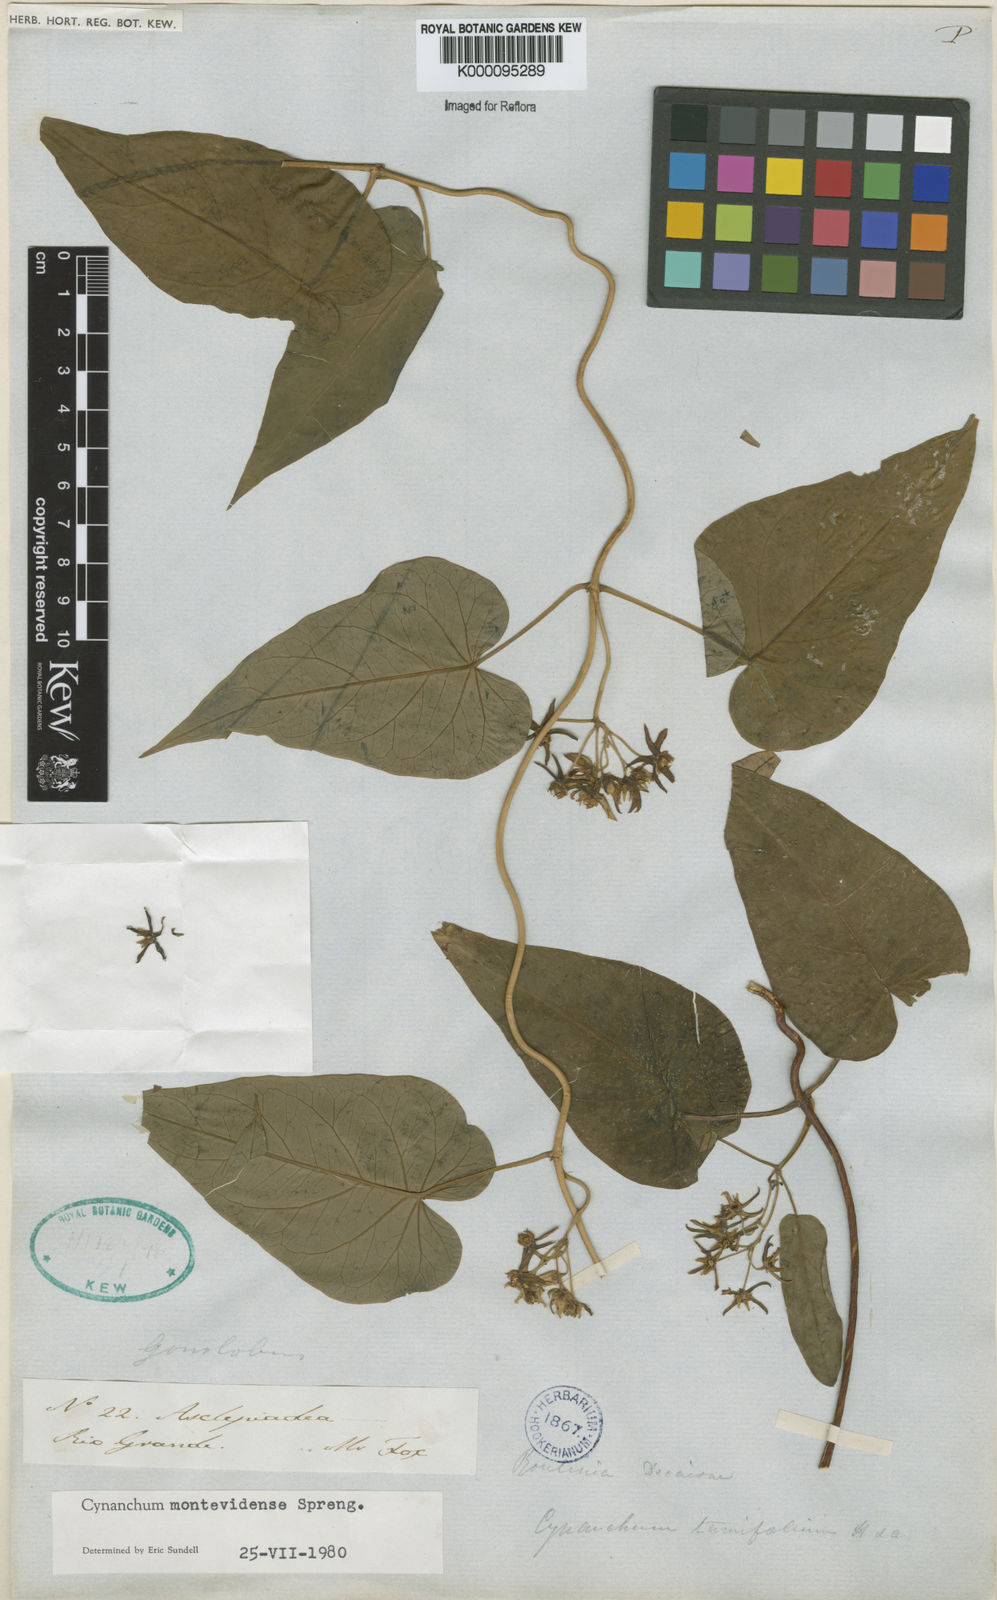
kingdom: Plantae
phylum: Tracheophyta
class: Magnoliopsida
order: Gentianales
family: Apocynaceae
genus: Cynanchum
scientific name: Cynanchum montevidense
